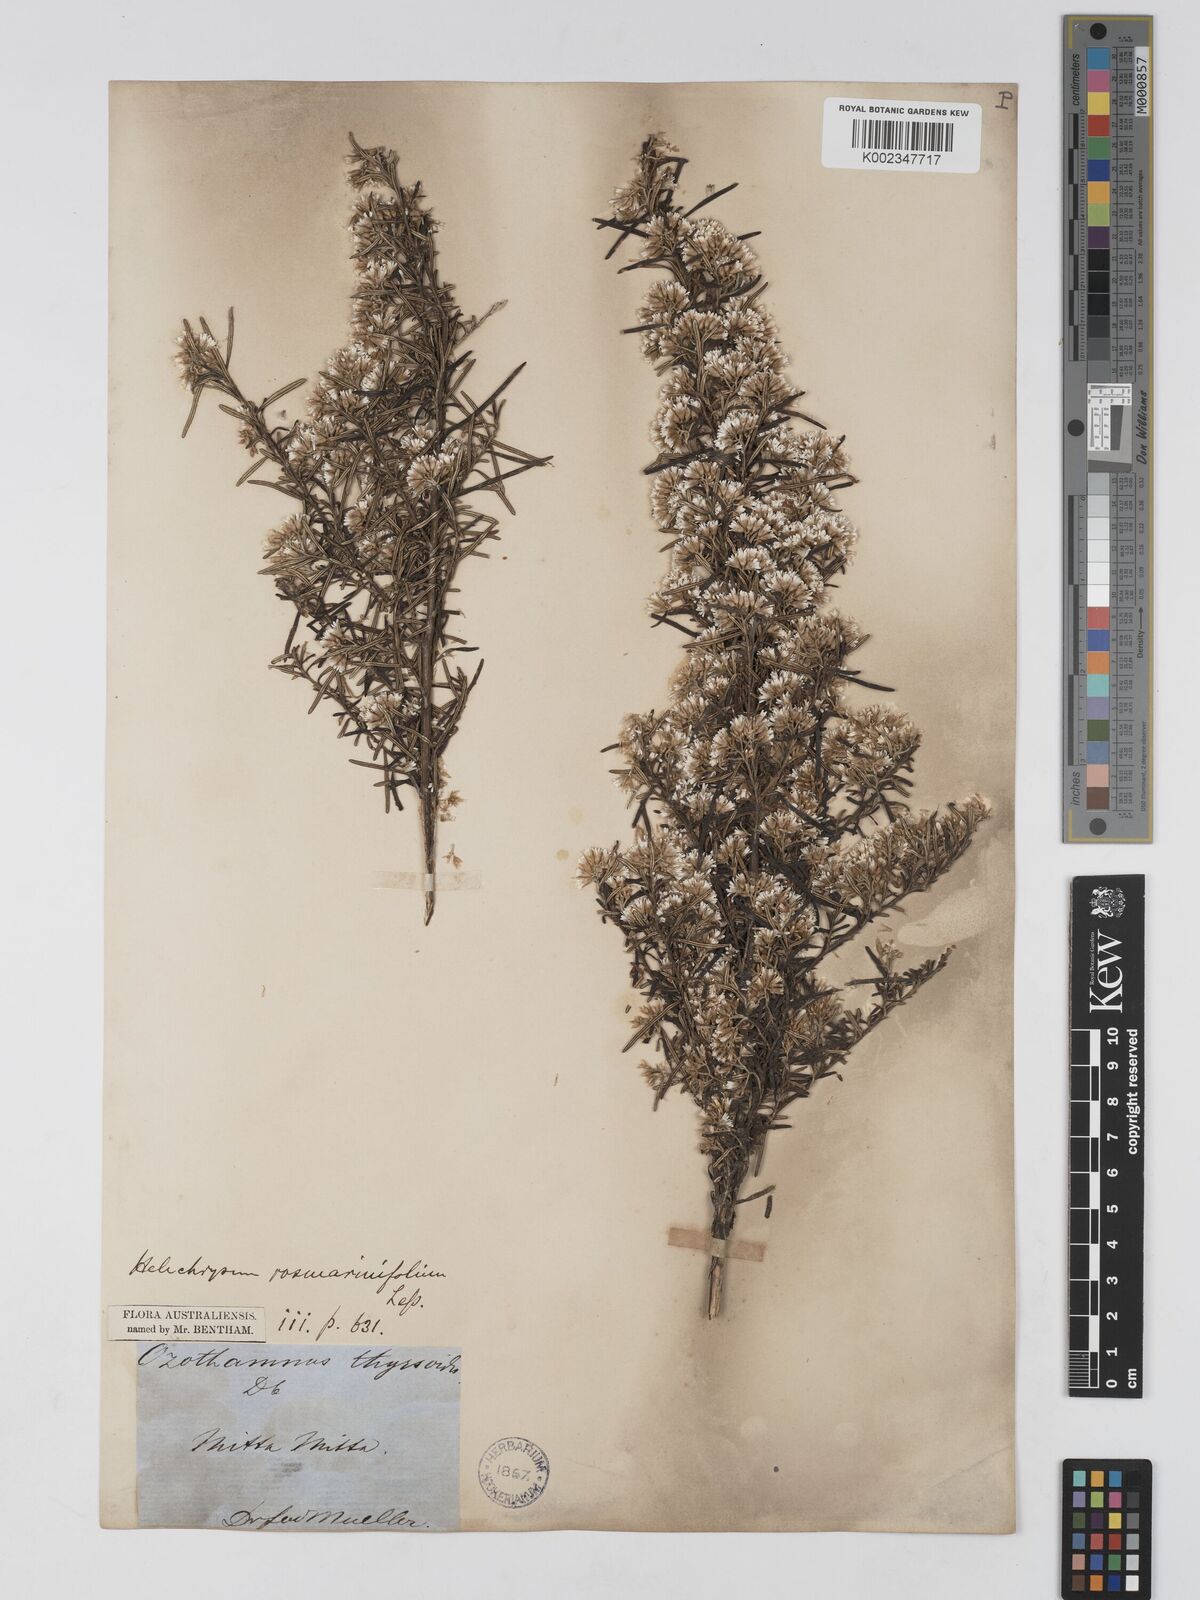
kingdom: Plantae
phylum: Tracheophyta
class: Magnoliopsida
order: Asterales
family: Asteraceae
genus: Ozothamnus
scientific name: Ozothamnus thyrsoideus
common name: Snow-in-summer
